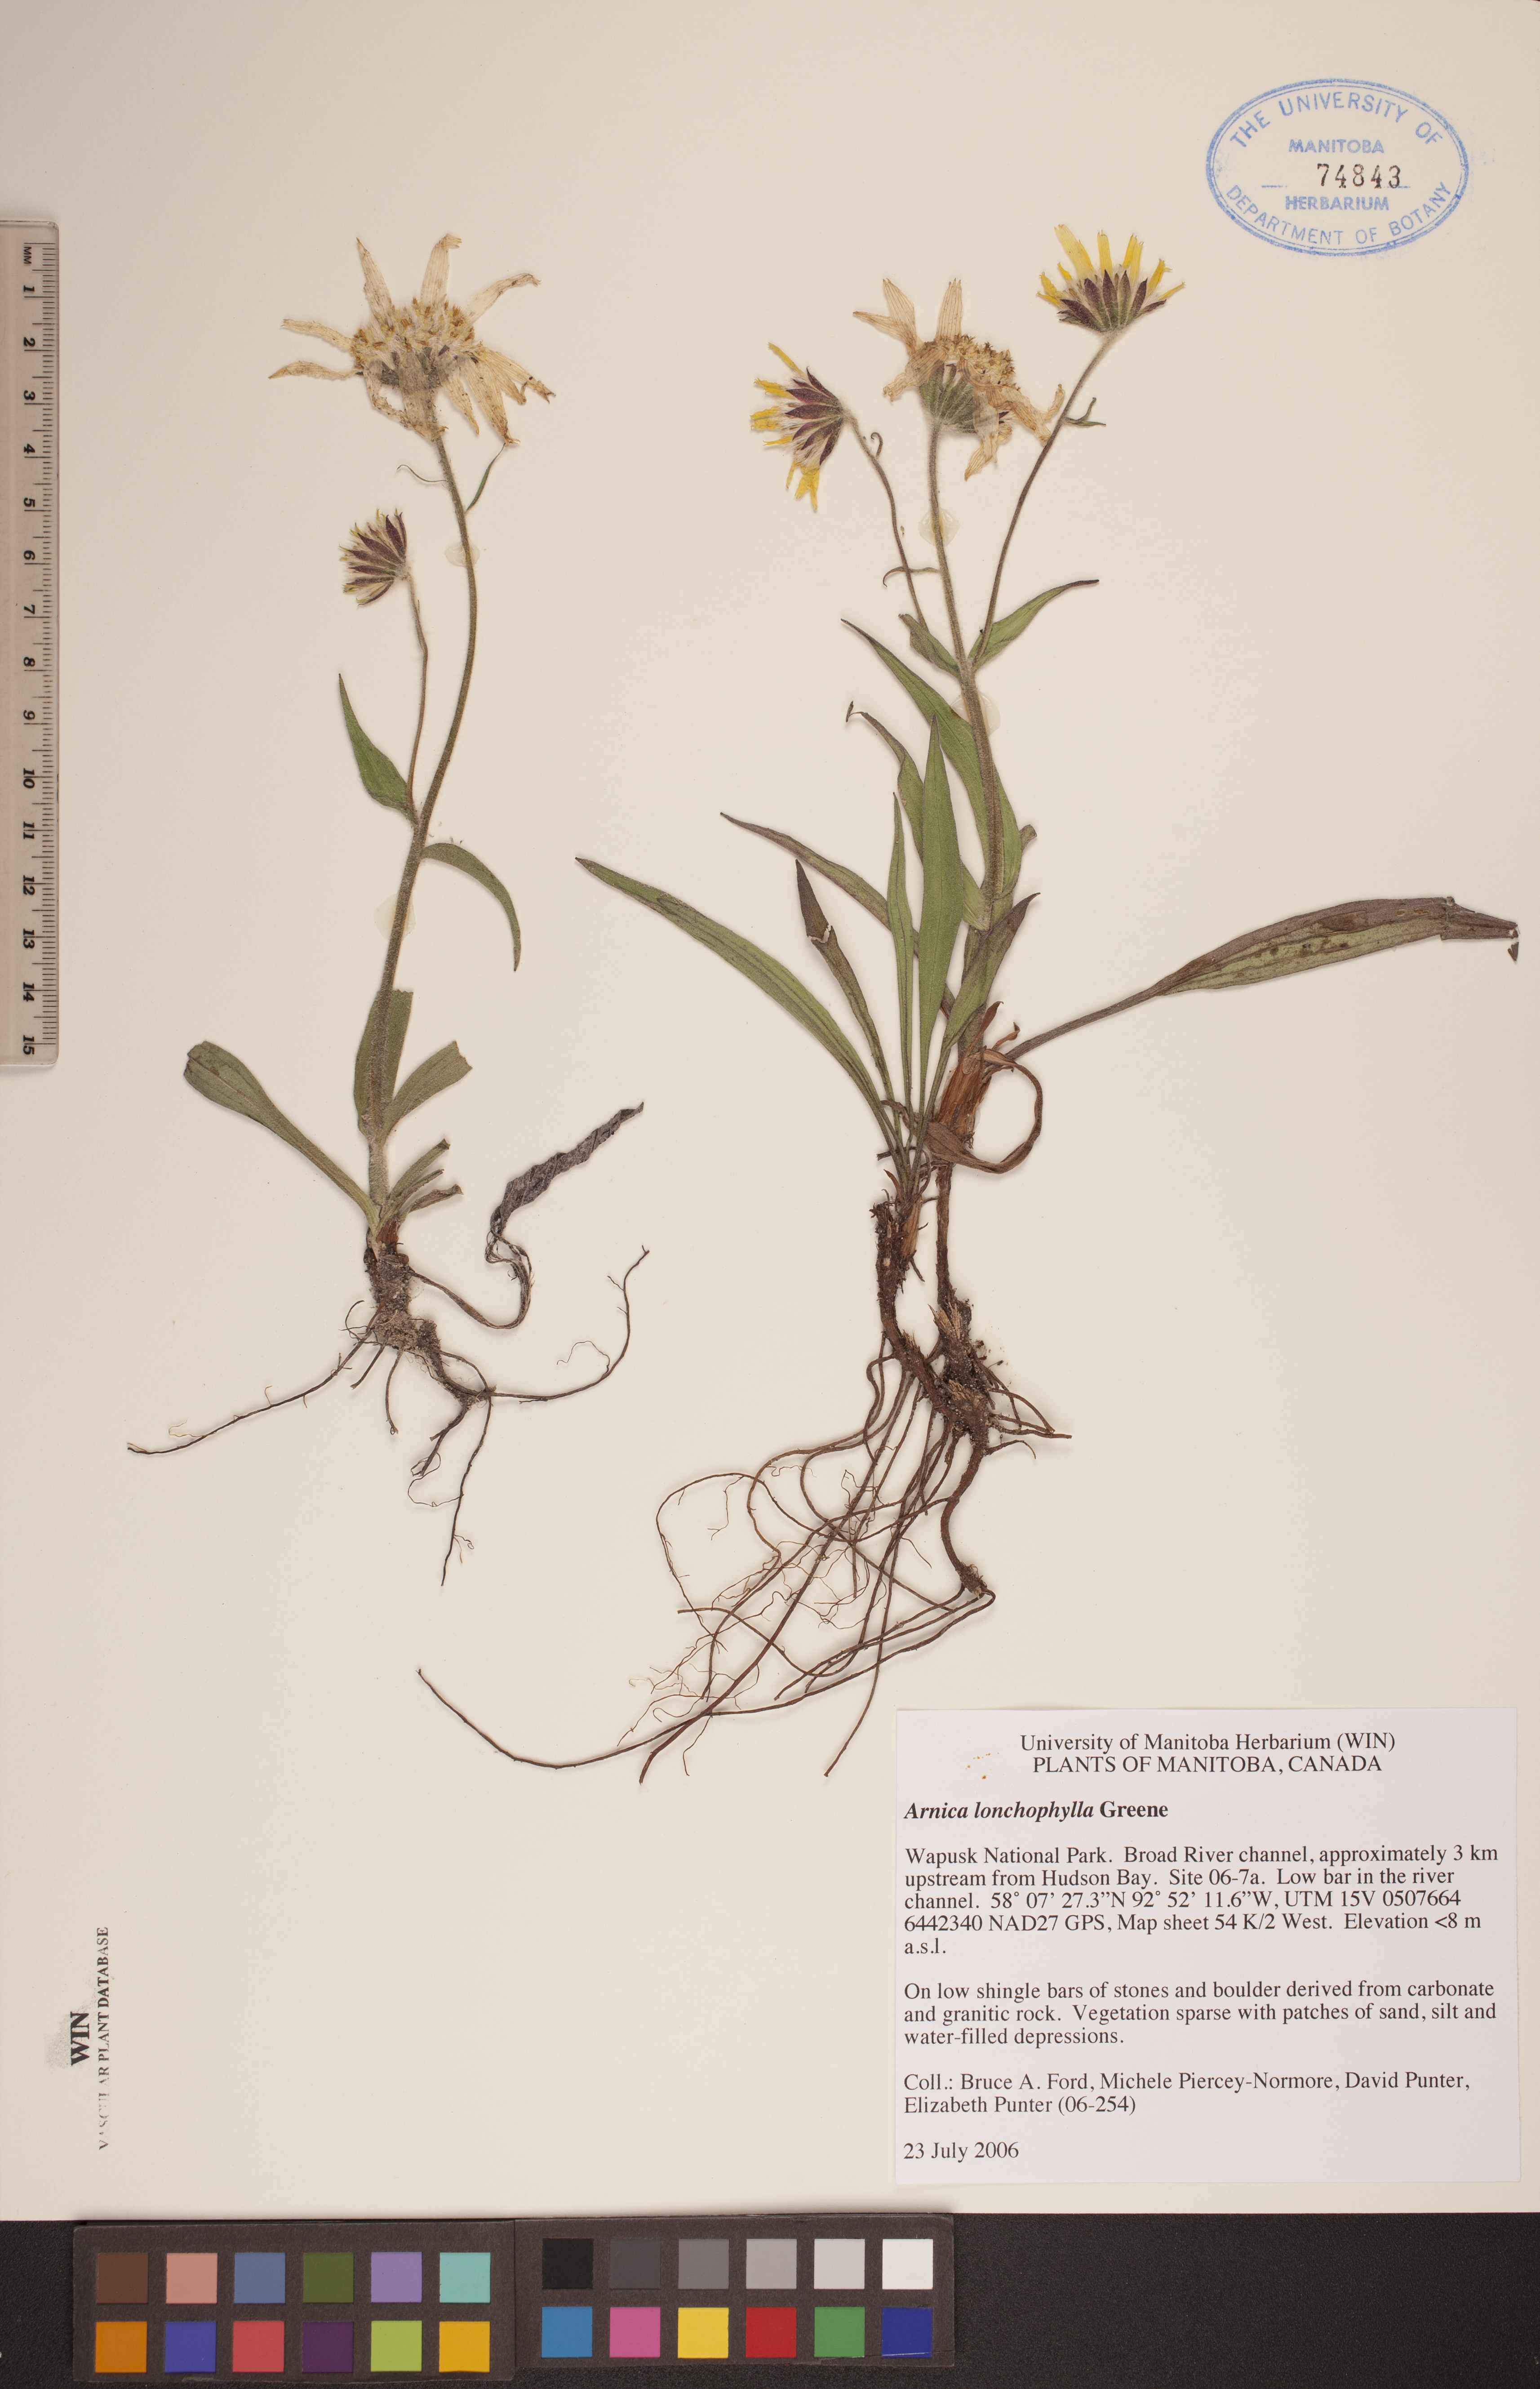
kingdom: Plantae
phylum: Tracheophyta
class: Magnoliopsida
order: Asterales
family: Asteraceae
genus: Arnica
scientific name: Arnica lonchophylla
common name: Northern arnica
